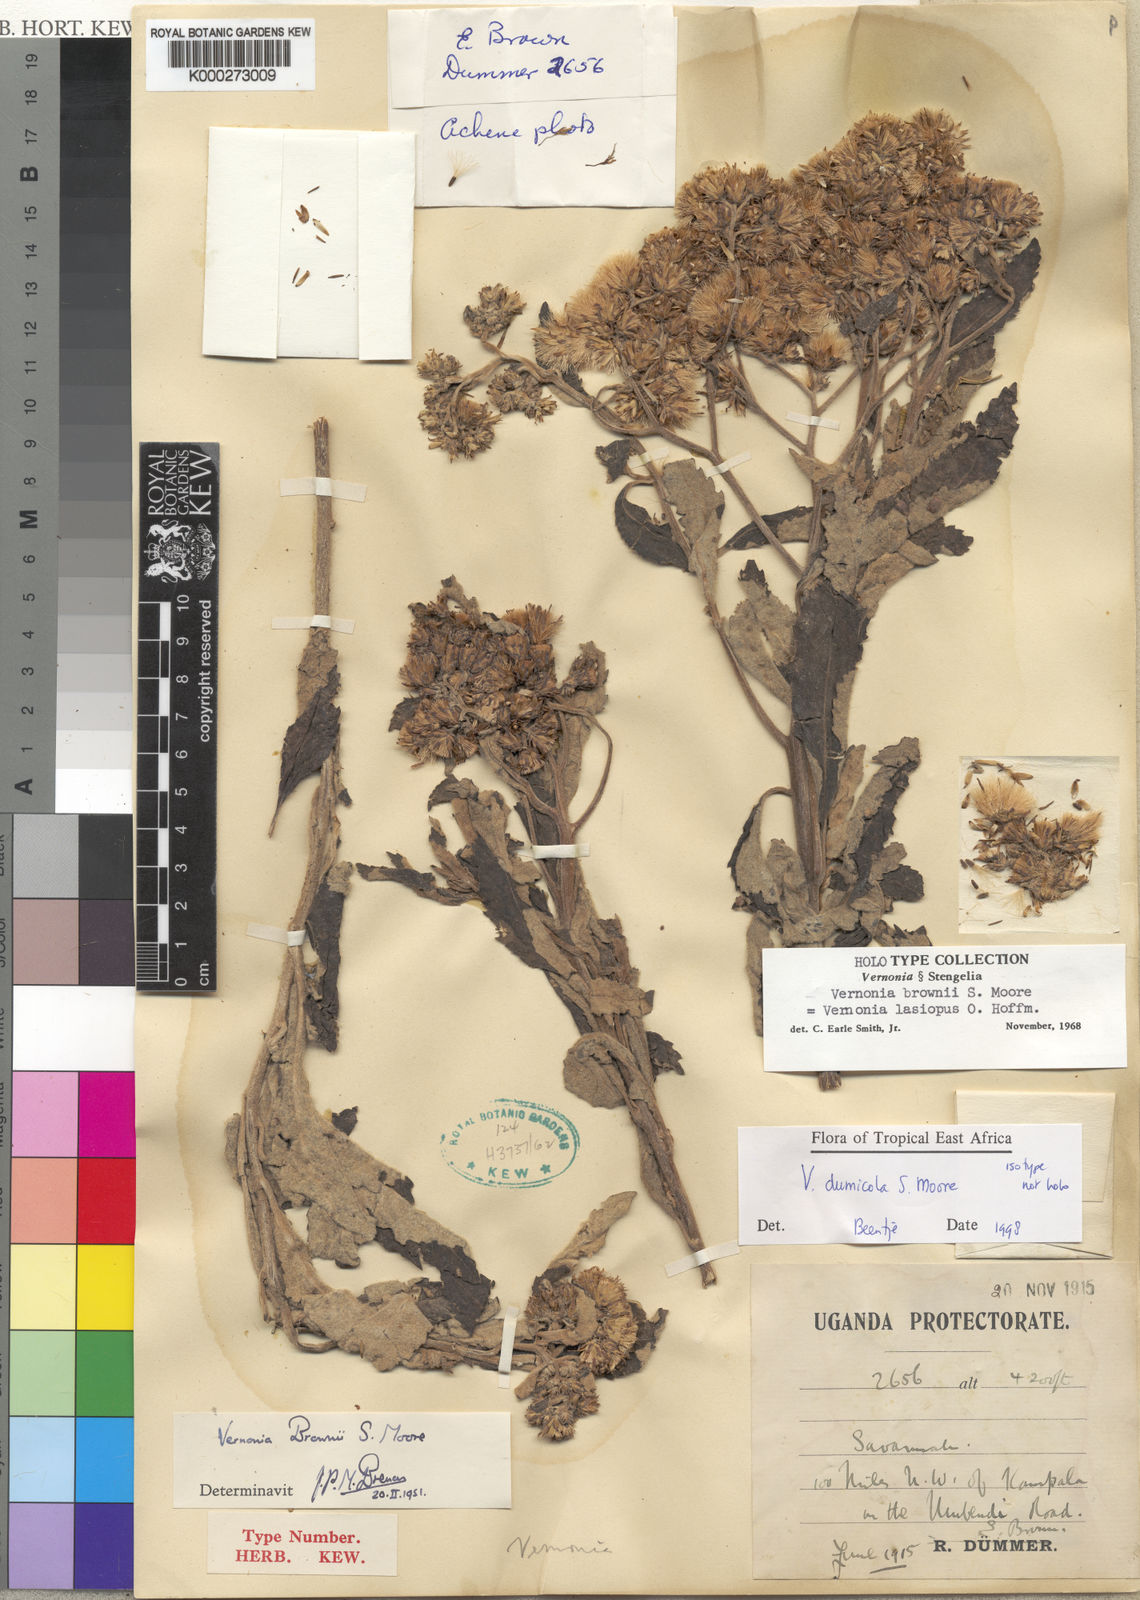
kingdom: Plantae
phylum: Tracheophyta
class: Magnoliopsida
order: Asterales
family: Asteraceae
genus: Baccharoides
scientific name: Baccharoides dumicola
